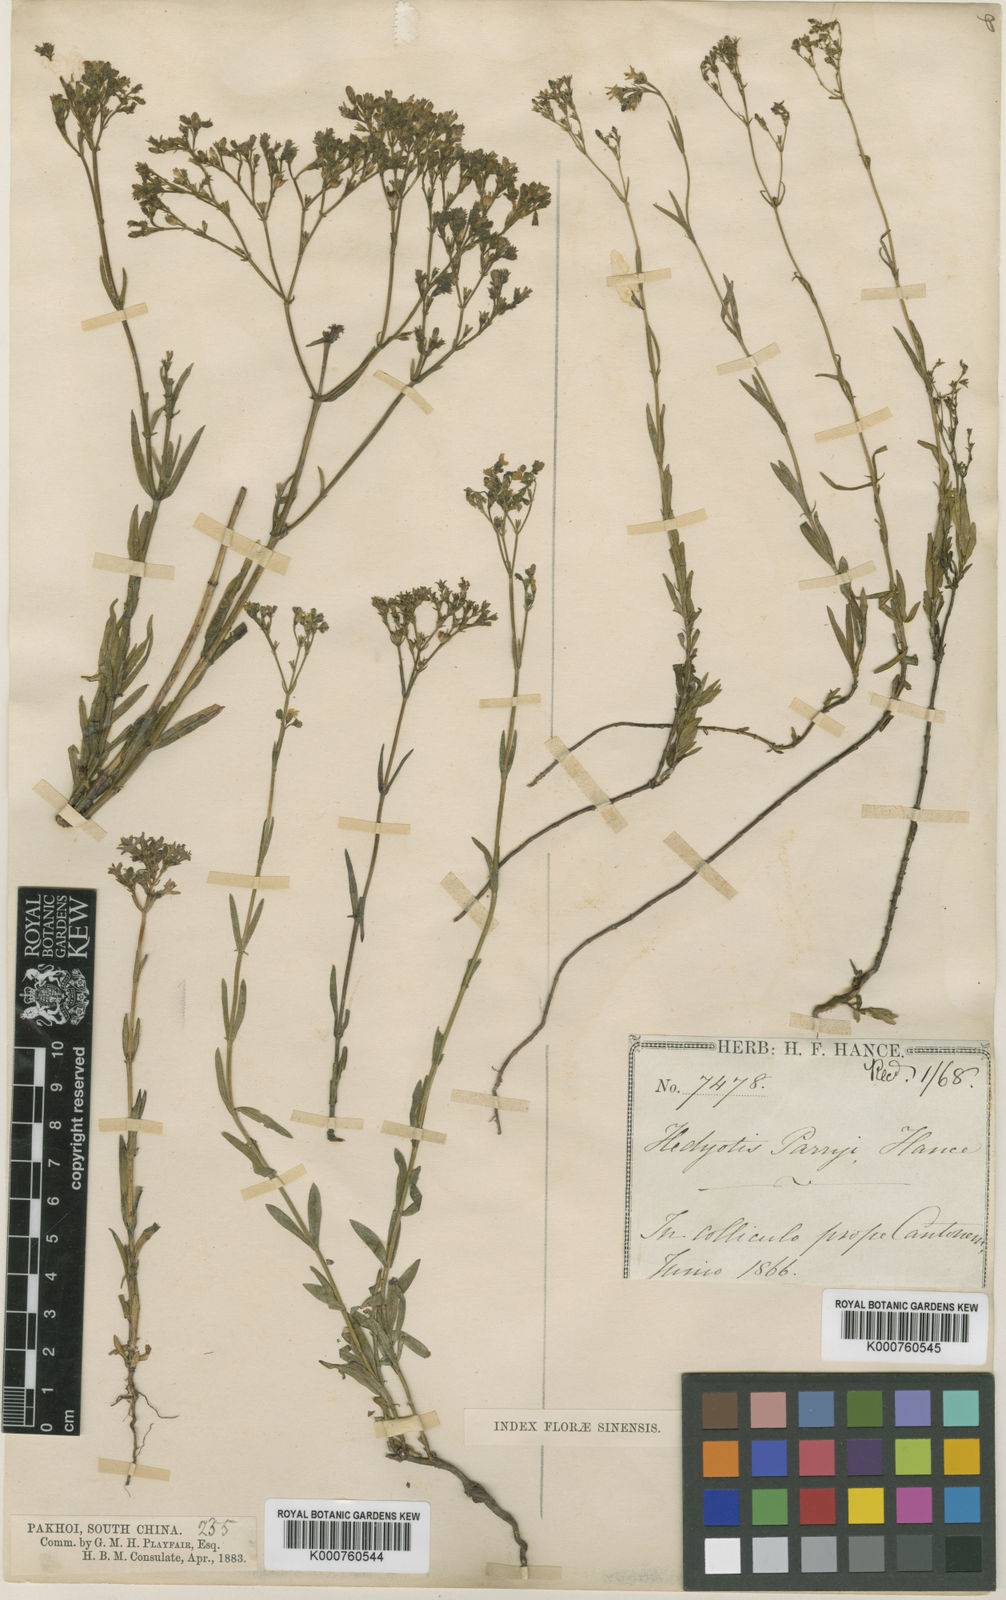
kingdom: Plantae
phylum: Tracheophyta
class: Magnoliopsida
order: Gentianales
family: Rubiaceae
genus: Hedyotis
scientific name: Hedyotis tetrangularis
